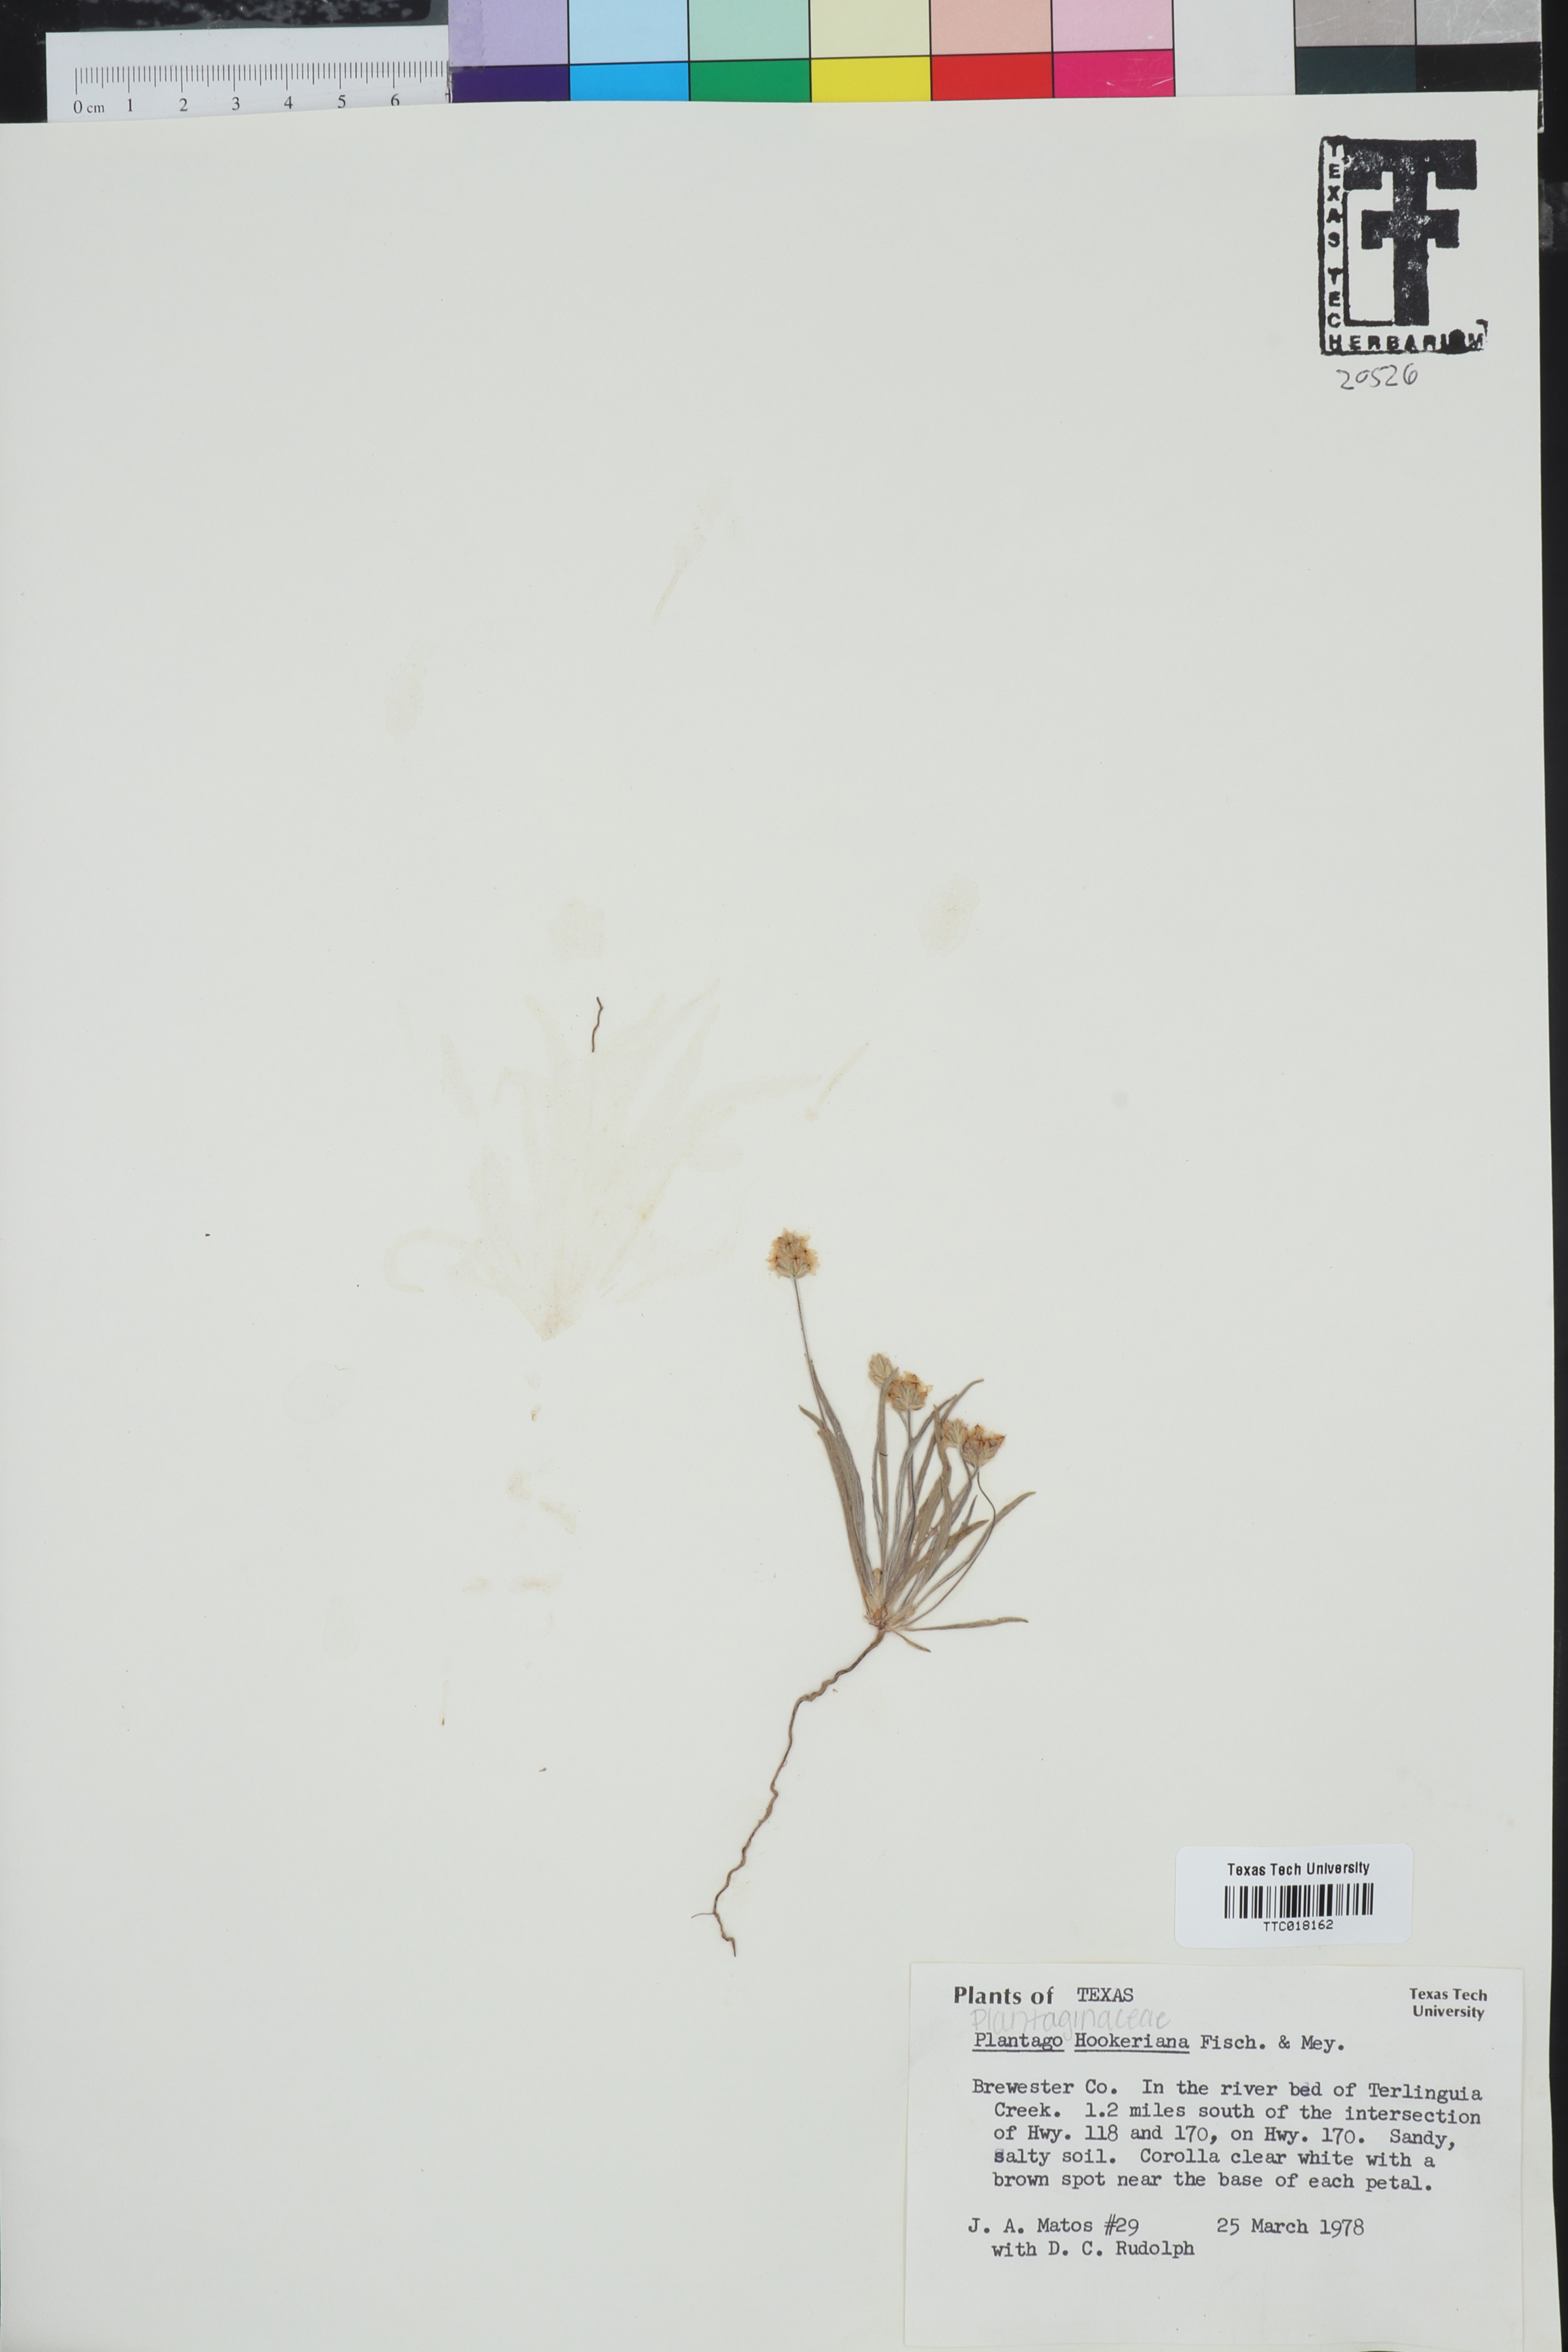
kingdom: Plantae
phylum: Tracheophyta
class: Magnoliopsida
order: Lamiales
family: Plantaginaceae
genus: Plantago
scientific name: Plantago hookeriana
